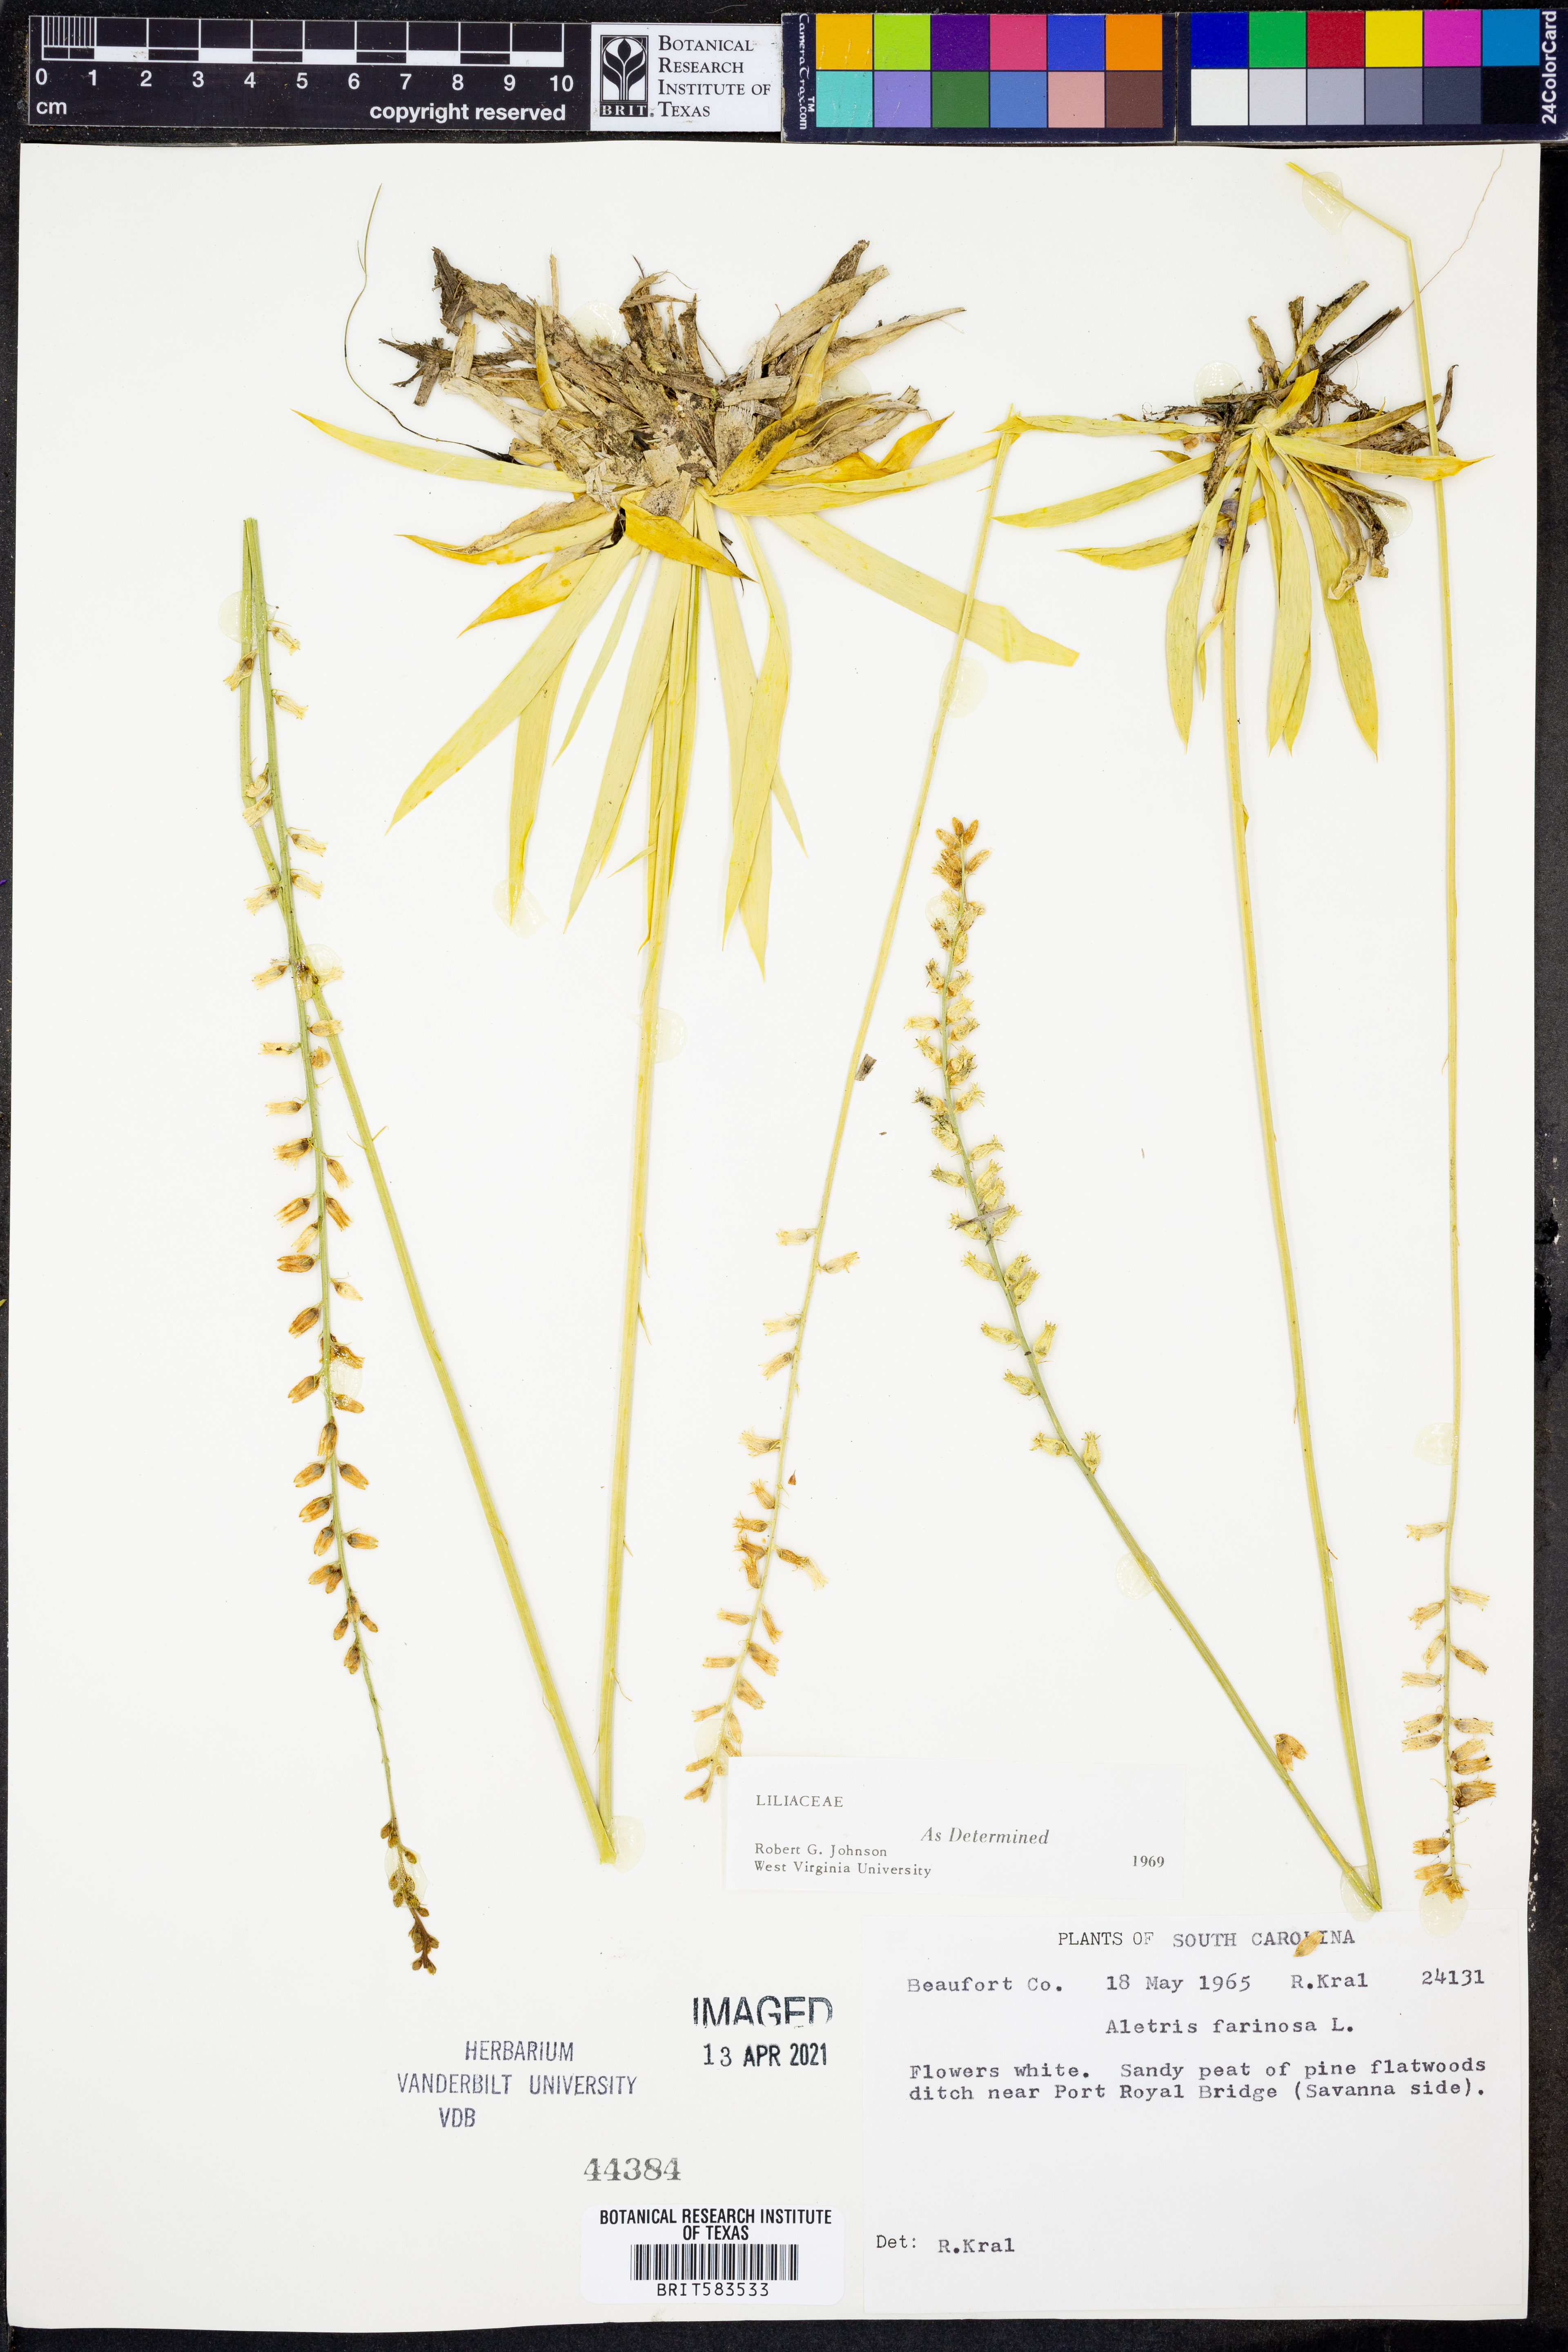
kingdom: Plantae
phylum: Tracheophyta
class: Liliopsida
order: Dioscoreales
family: Nartheciaceae
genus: Aletris
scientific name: Aletris farinosa
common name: Colicroot
